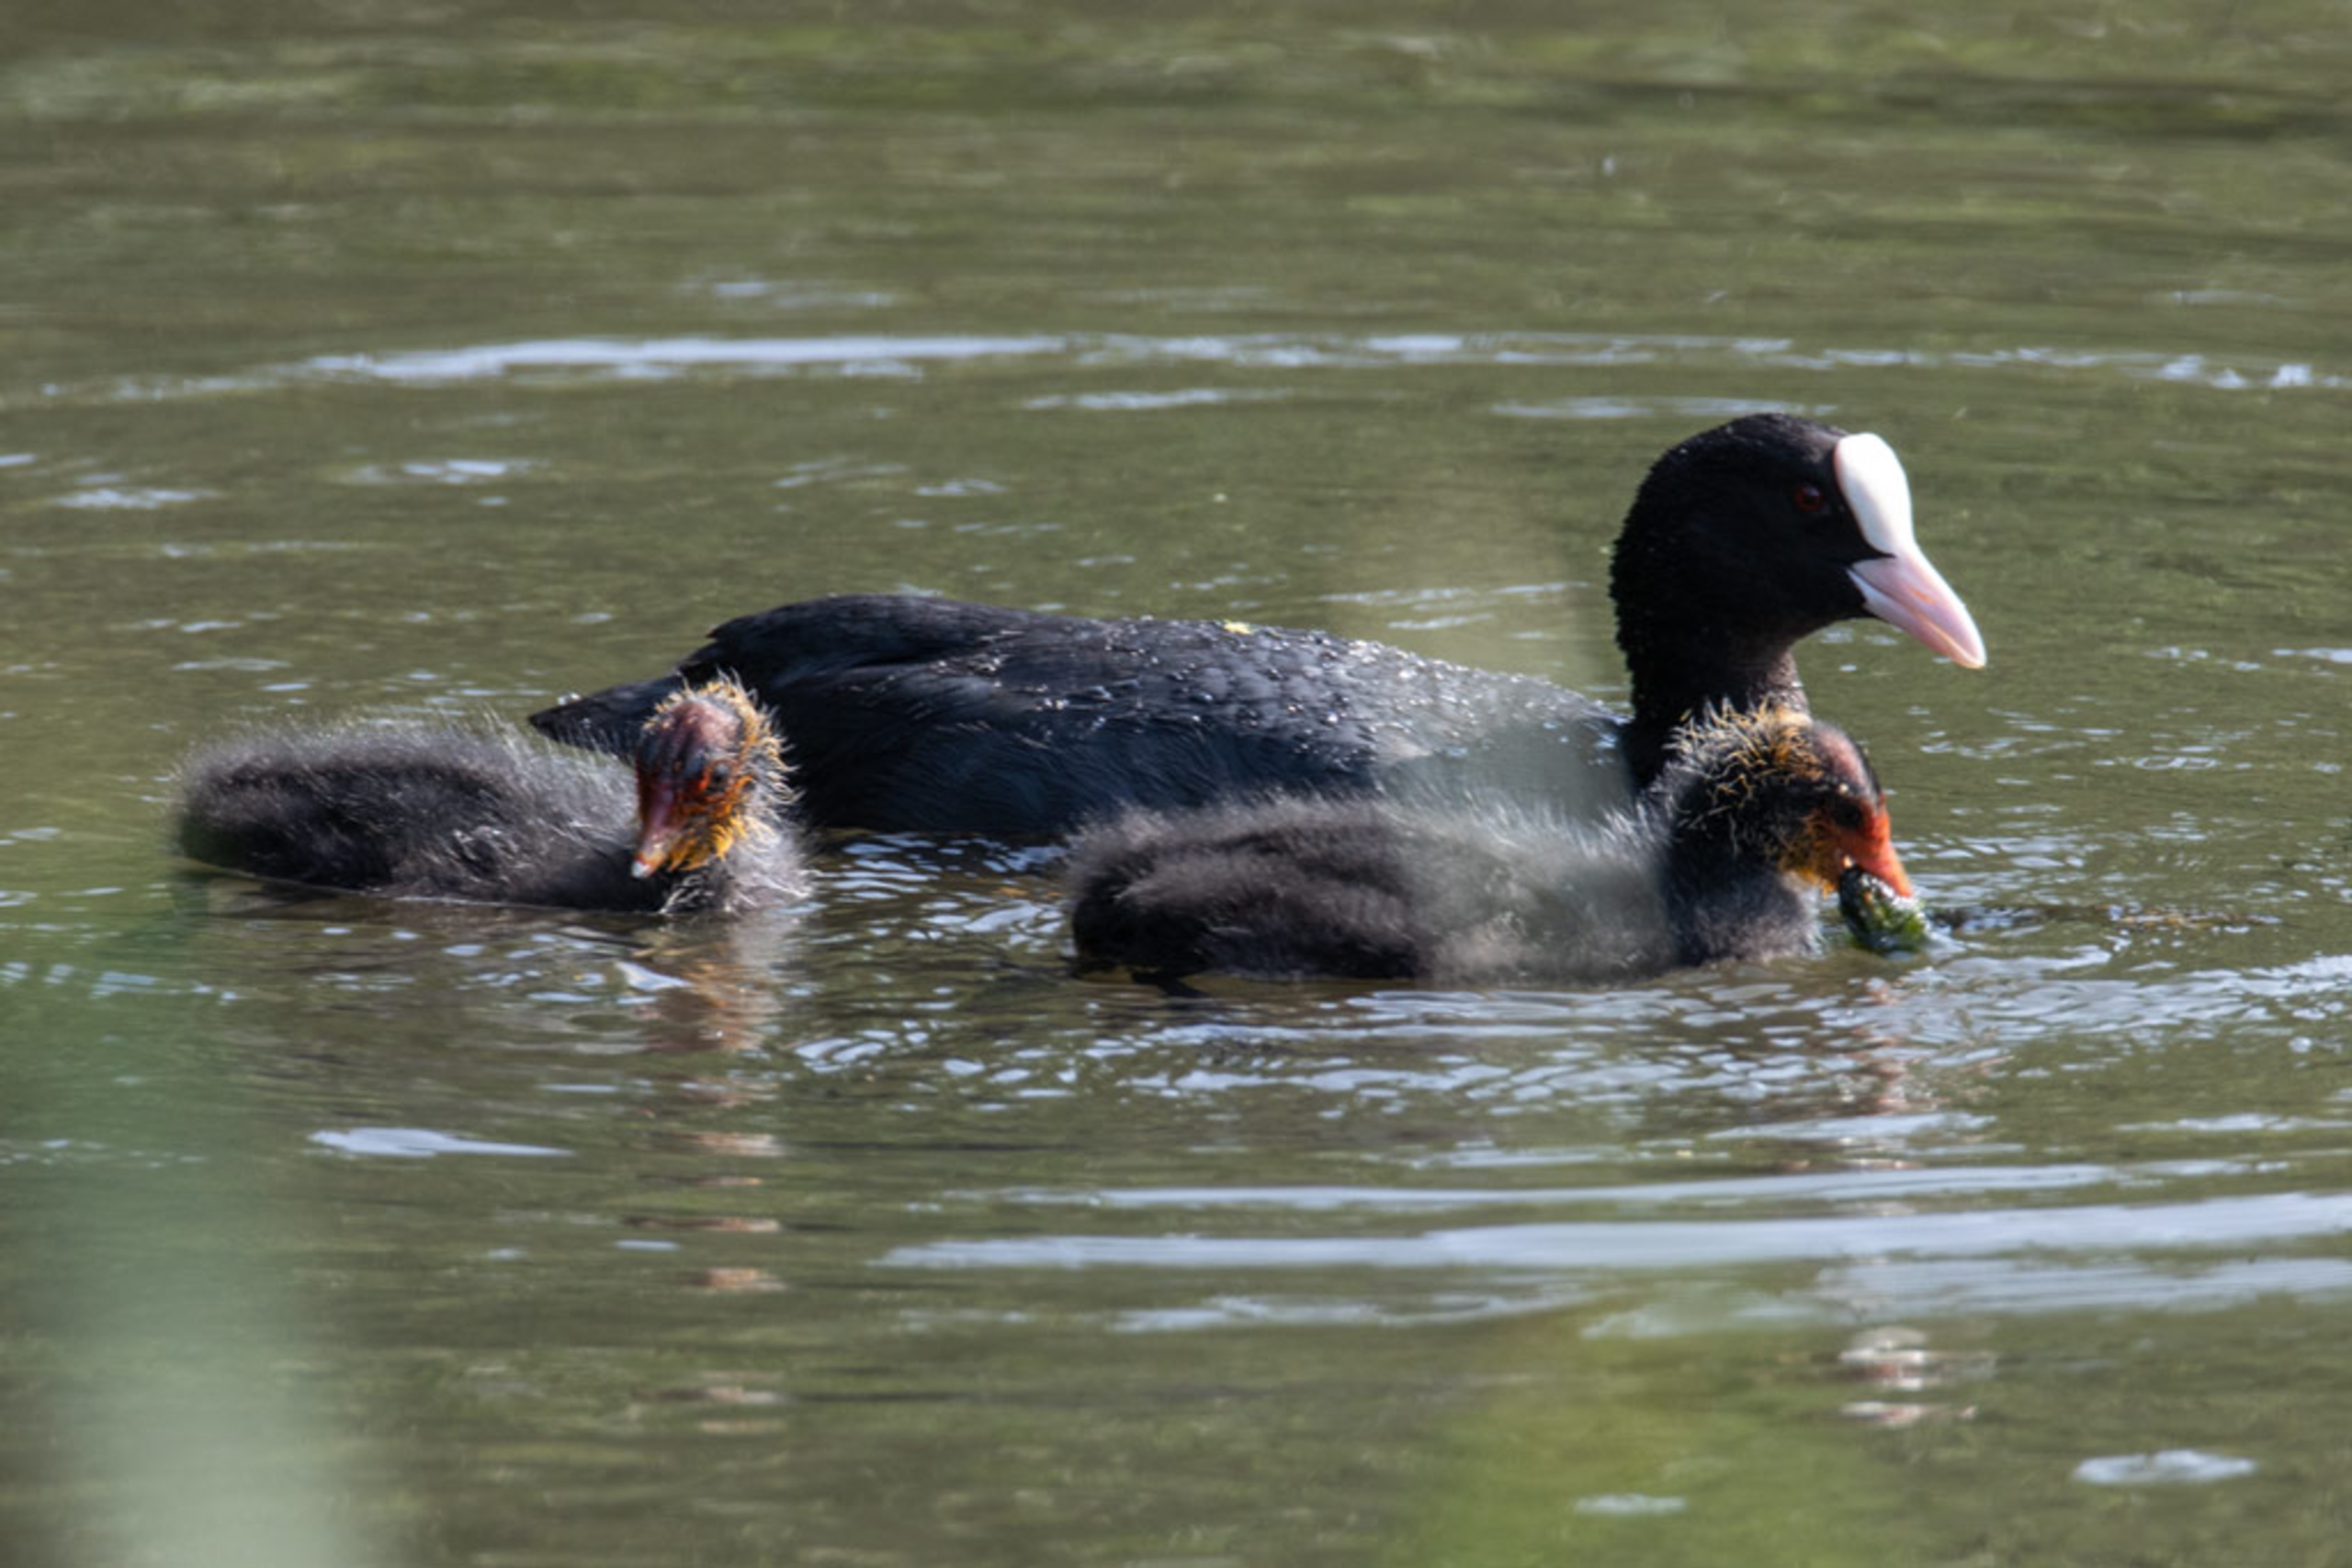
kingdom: Animalia
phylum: Chordata
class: Aves
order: Gruiformes
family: Rallidae
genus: Fulica
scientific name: Fulica atra
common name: Blishøne
